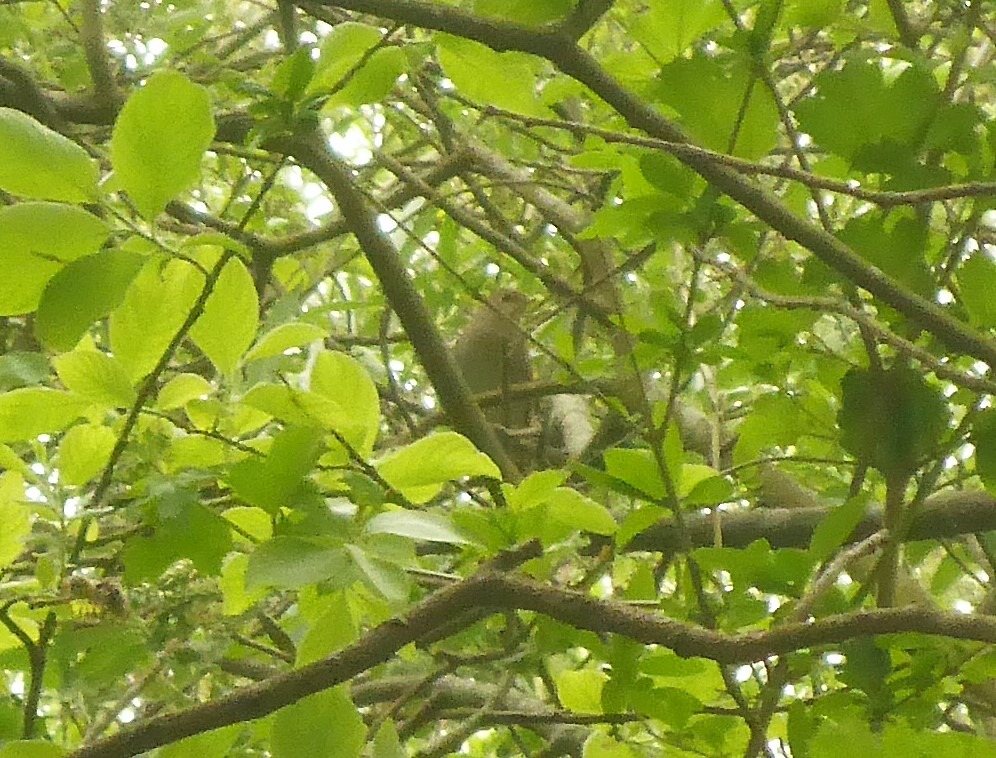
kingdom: Animalia
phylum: Chordata
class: Aves
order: Passeriformes
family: Muscicapidae
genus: Luscinia
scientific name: Luscinia luscinia
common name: Nattergal
